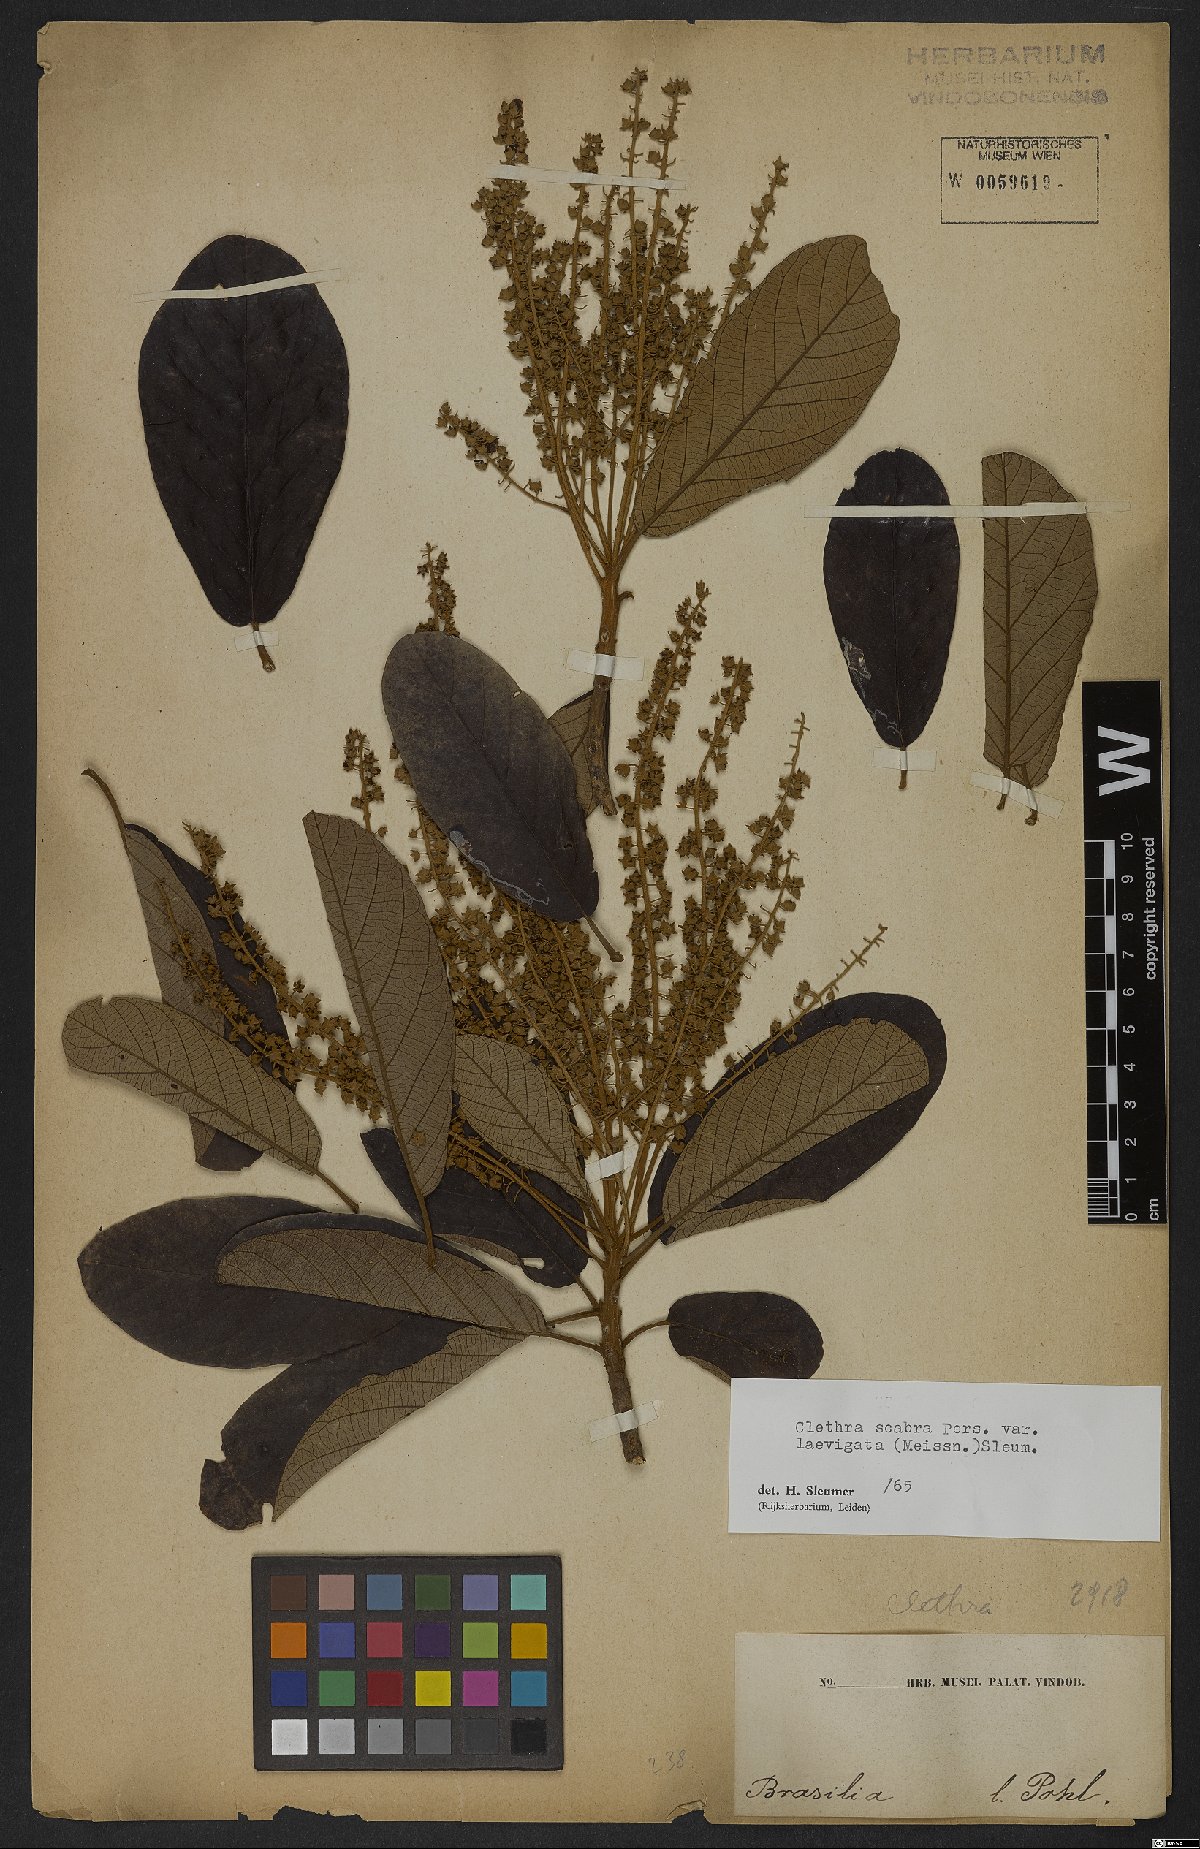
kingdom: Plantae
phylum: Tracheophyta
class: Magnoliopsida
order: Ericales
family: Clethraceae
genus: Clethra
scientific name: Clethra scabra
